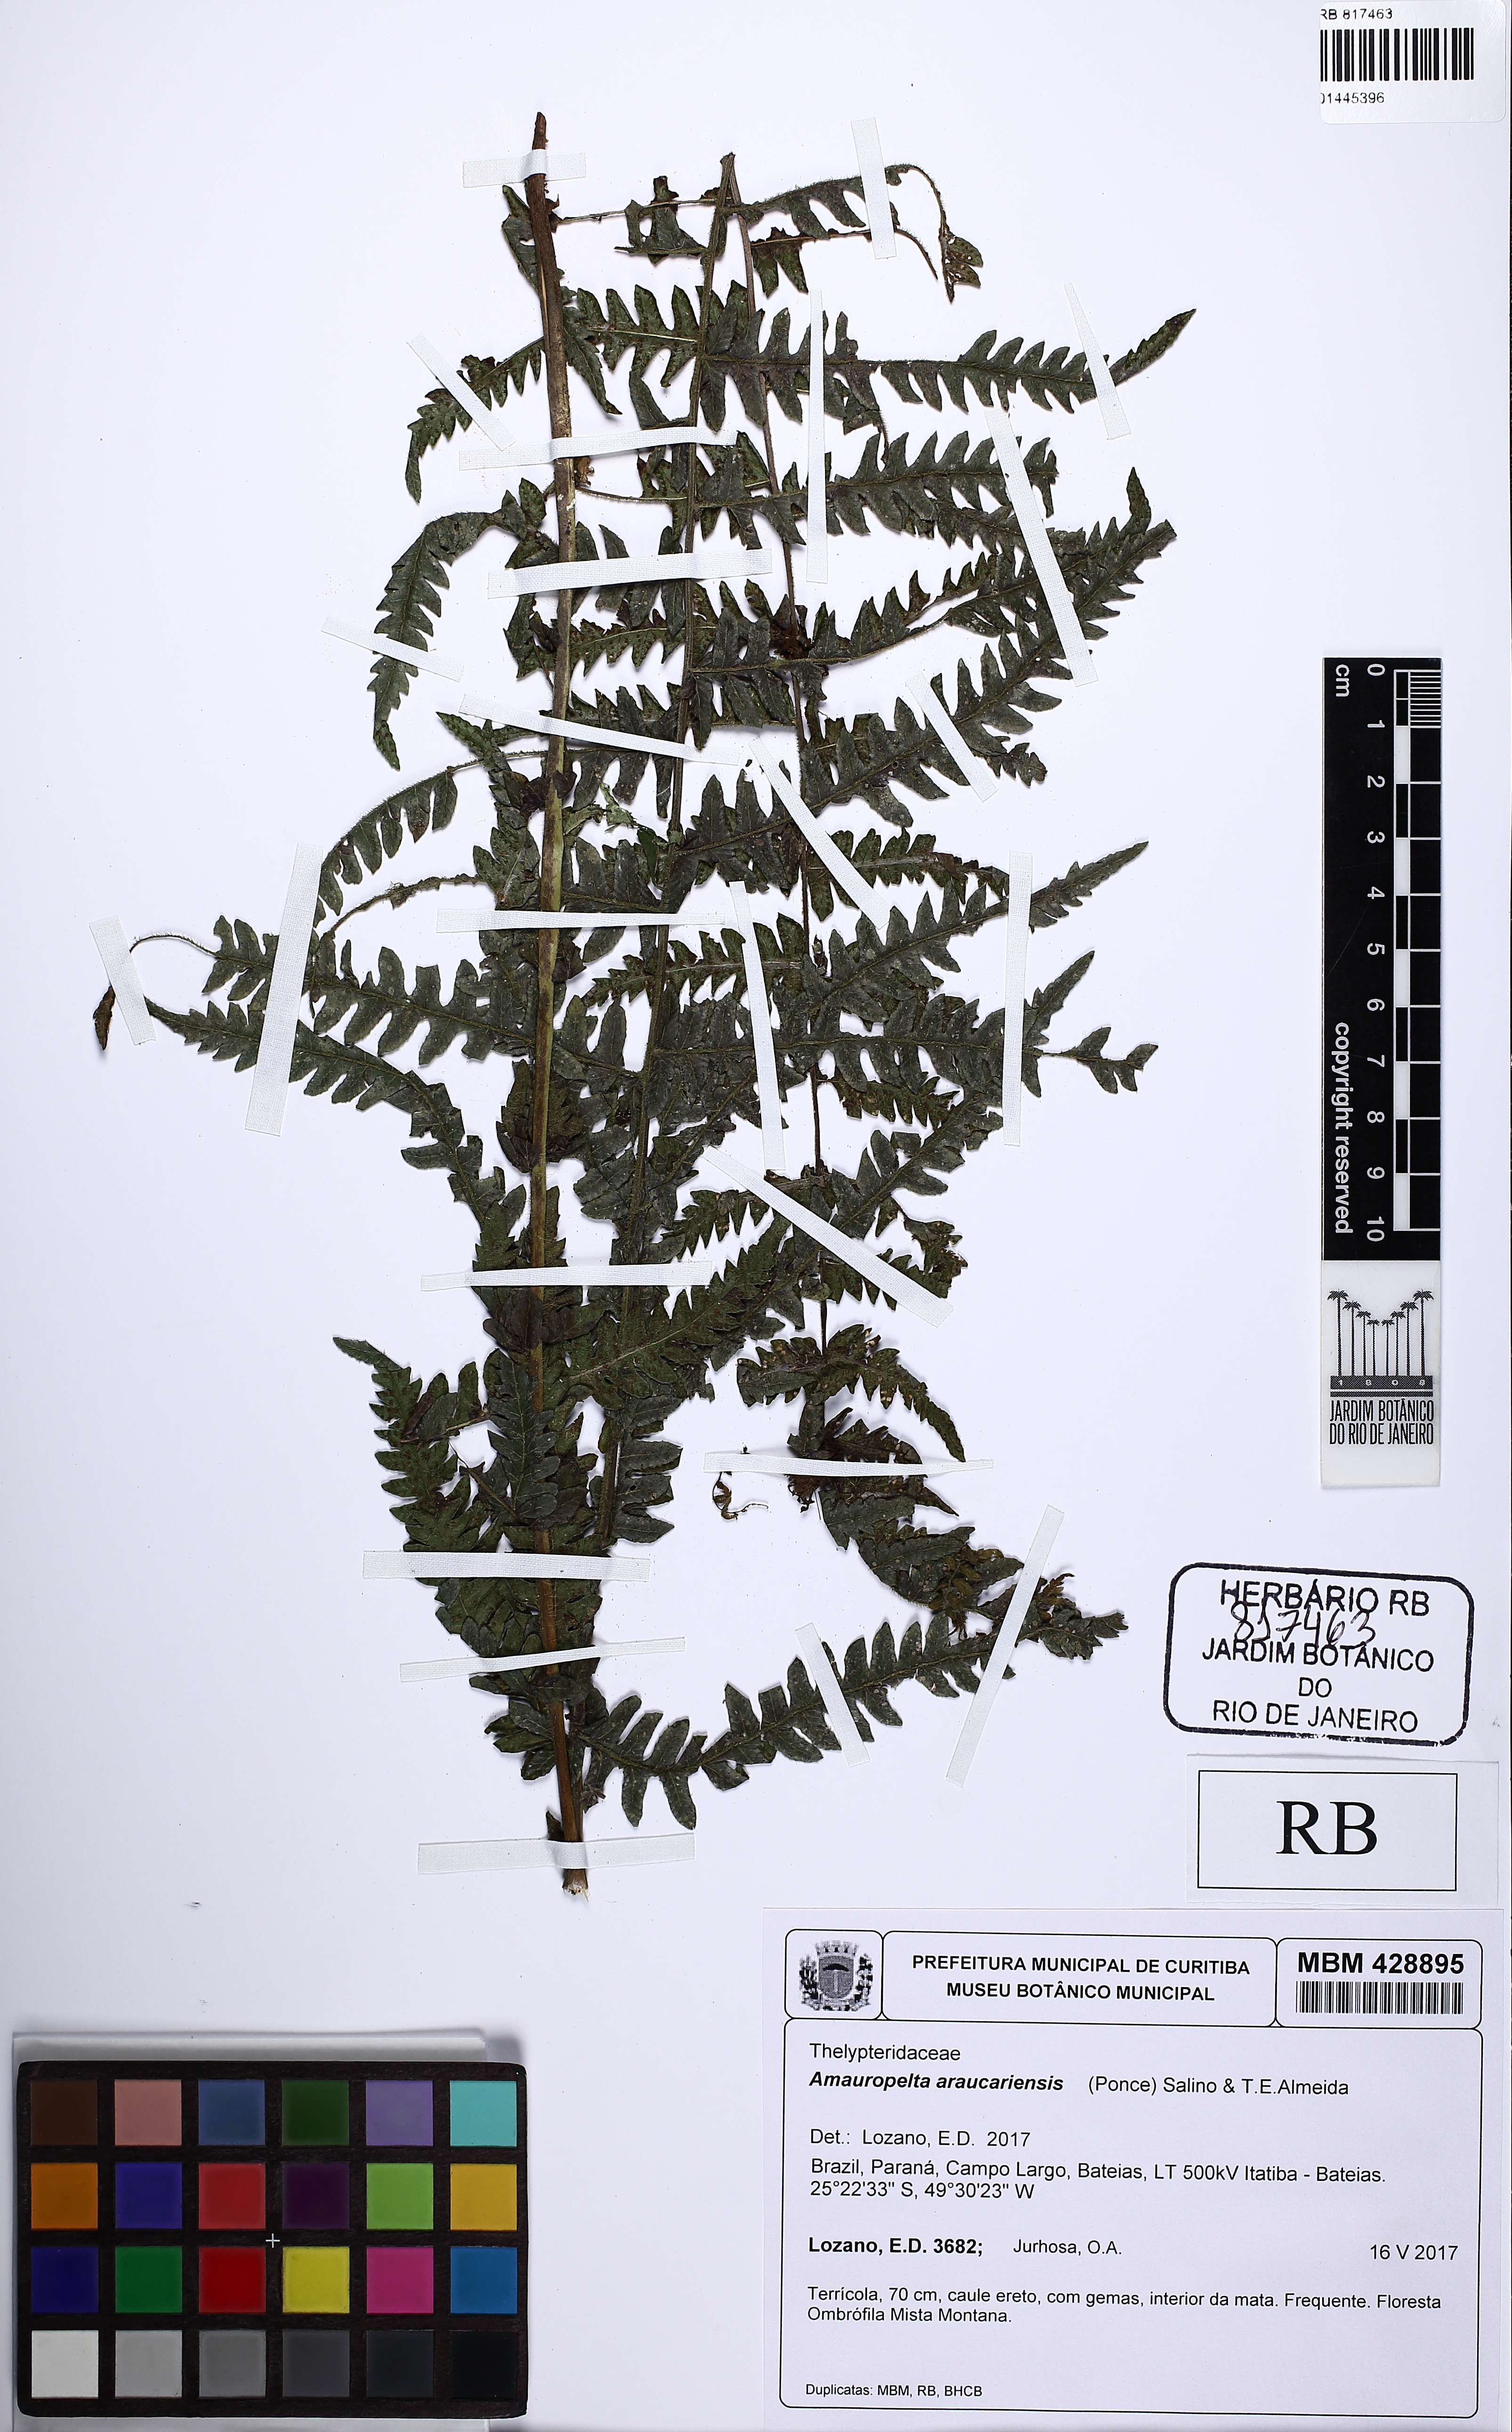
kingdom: Plantae
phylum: Tracheophyta
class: Polypodiopsida
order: Polypodiales
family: Thelypteridaceae
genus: Amauropelta
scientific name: Amauropelta araucariensis
